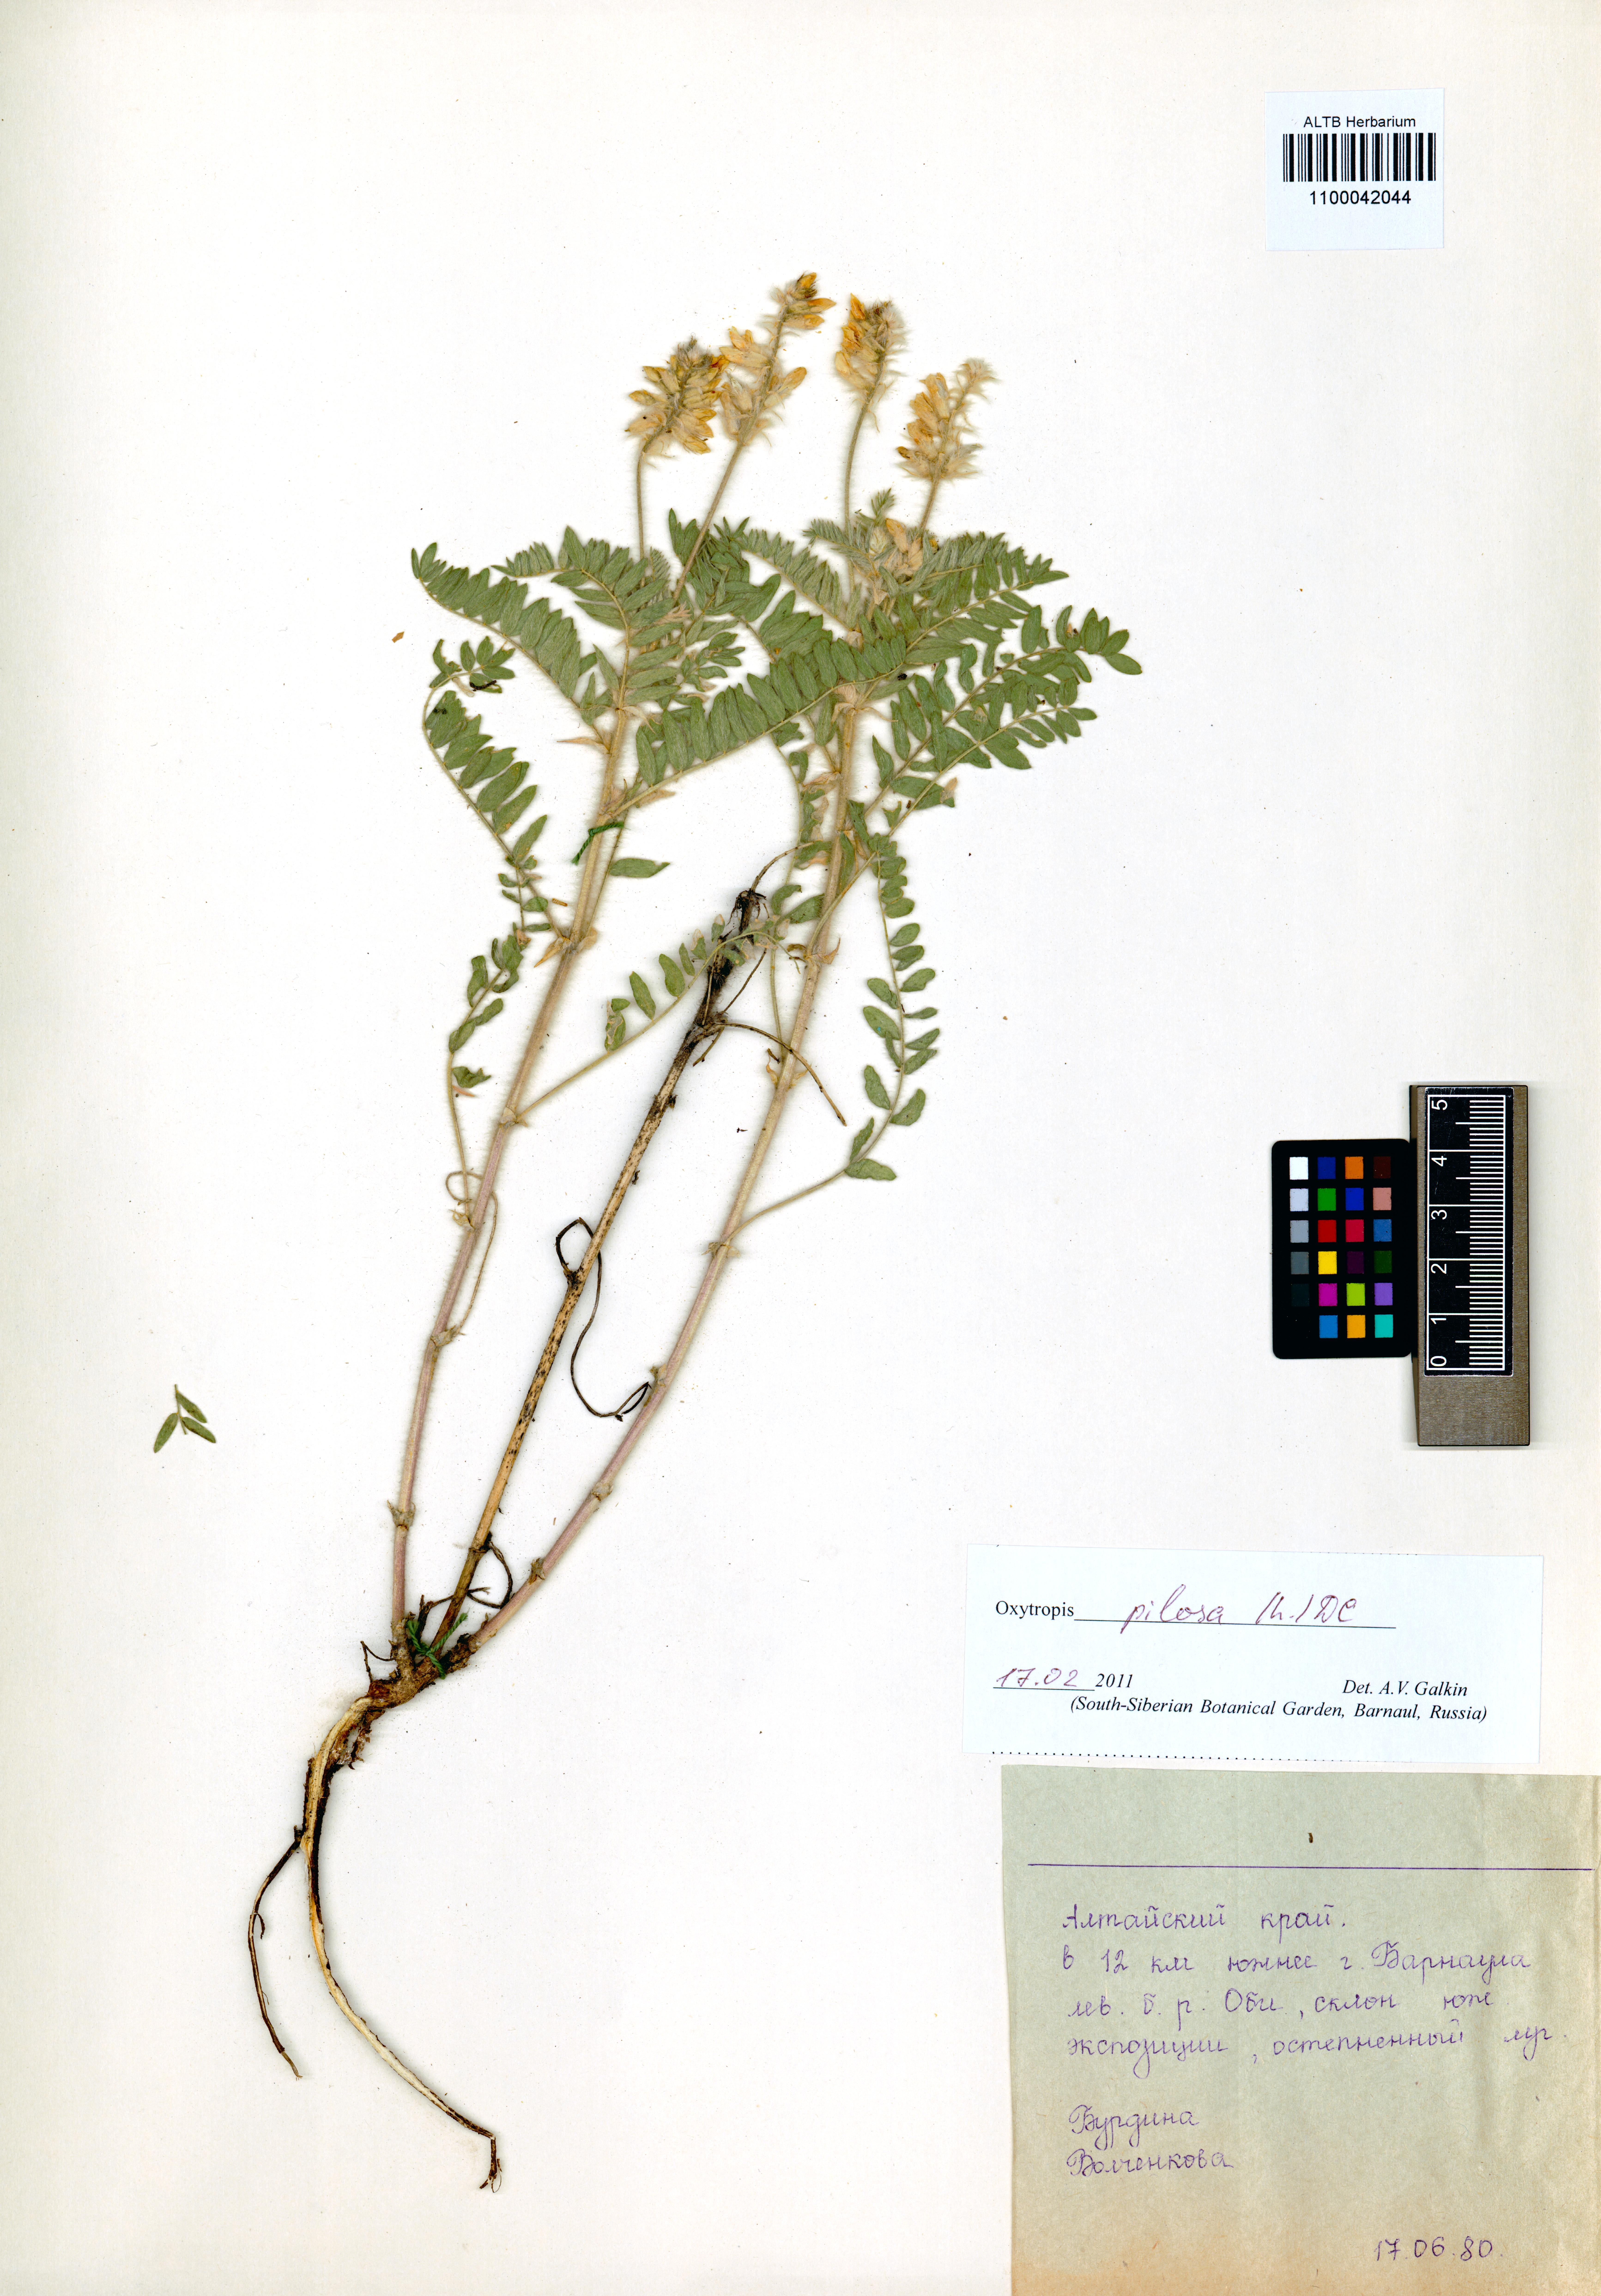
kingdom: Plantae
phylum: Tracheophyta
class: Magnoliopsida
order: Fabales
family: Fabaceae
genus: Oxytropis
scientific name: Oxytropis pilosa
